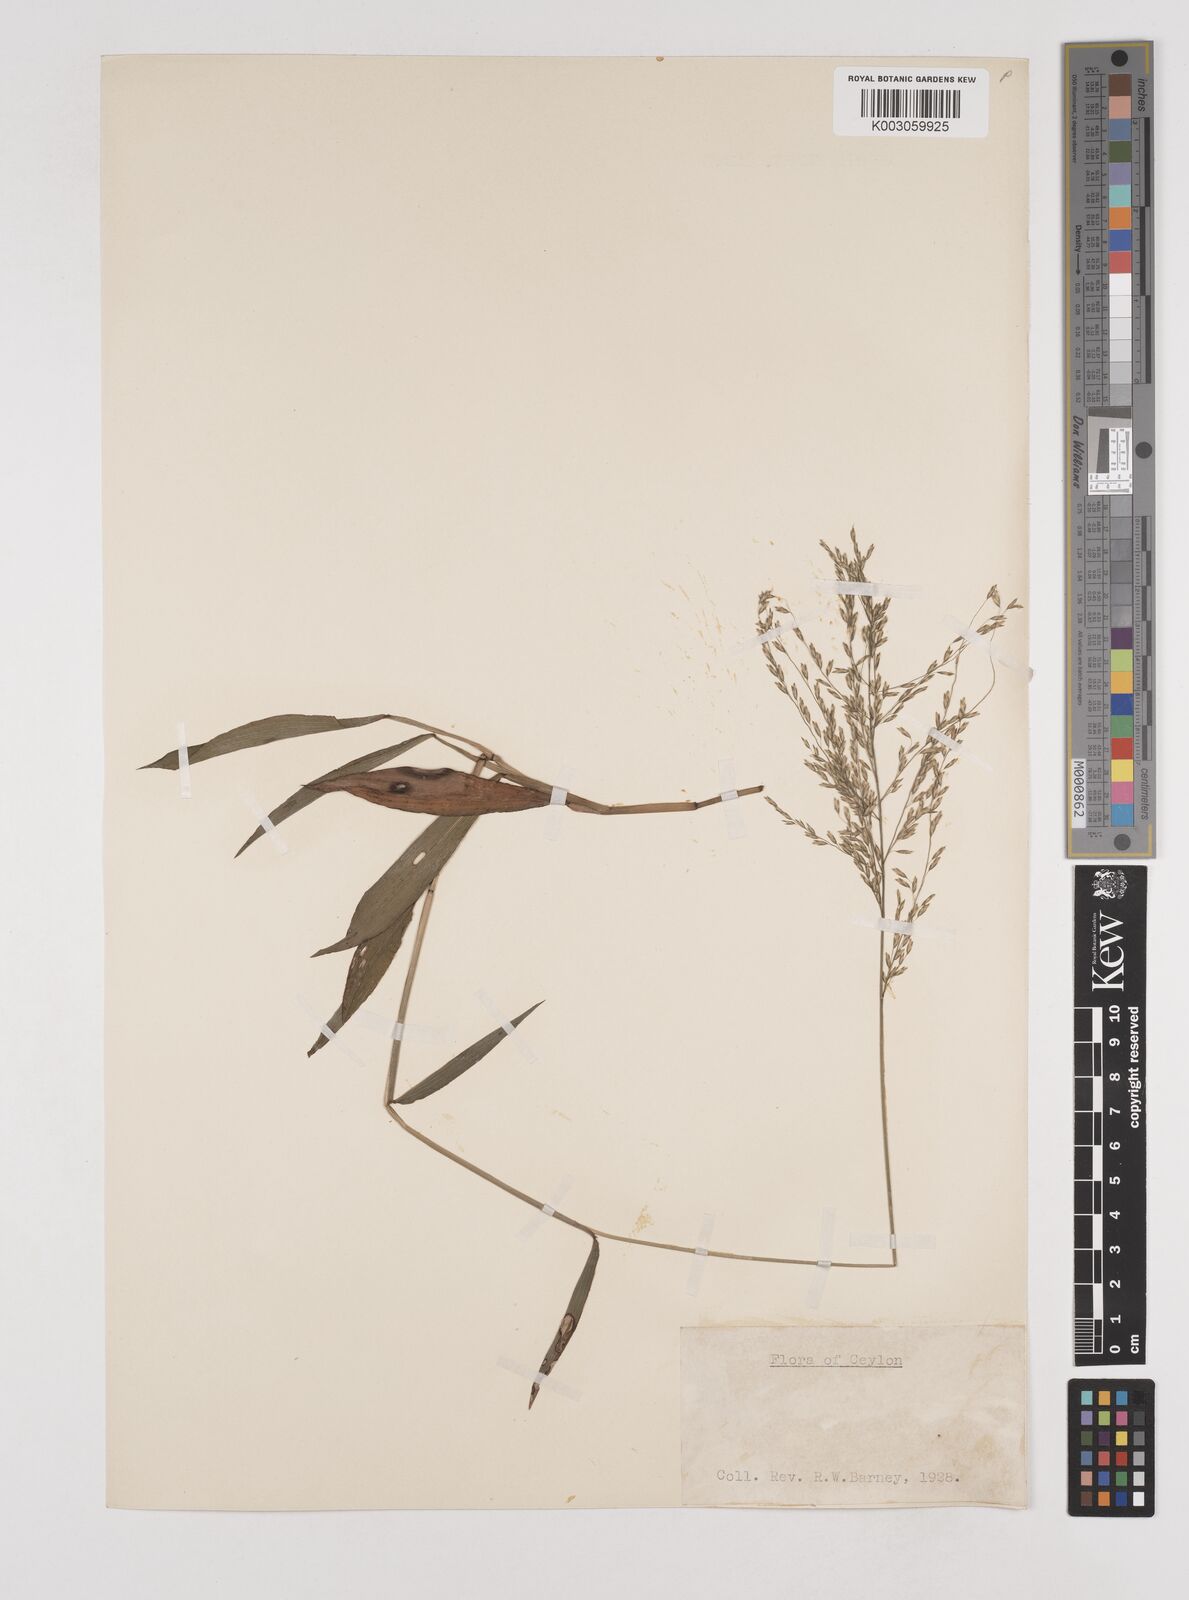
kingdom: Plantae
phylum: Tracheophyta
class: Liliopsida
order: Poales
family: Poaceae
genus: Centotheca
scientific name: Centotheca lappacea
